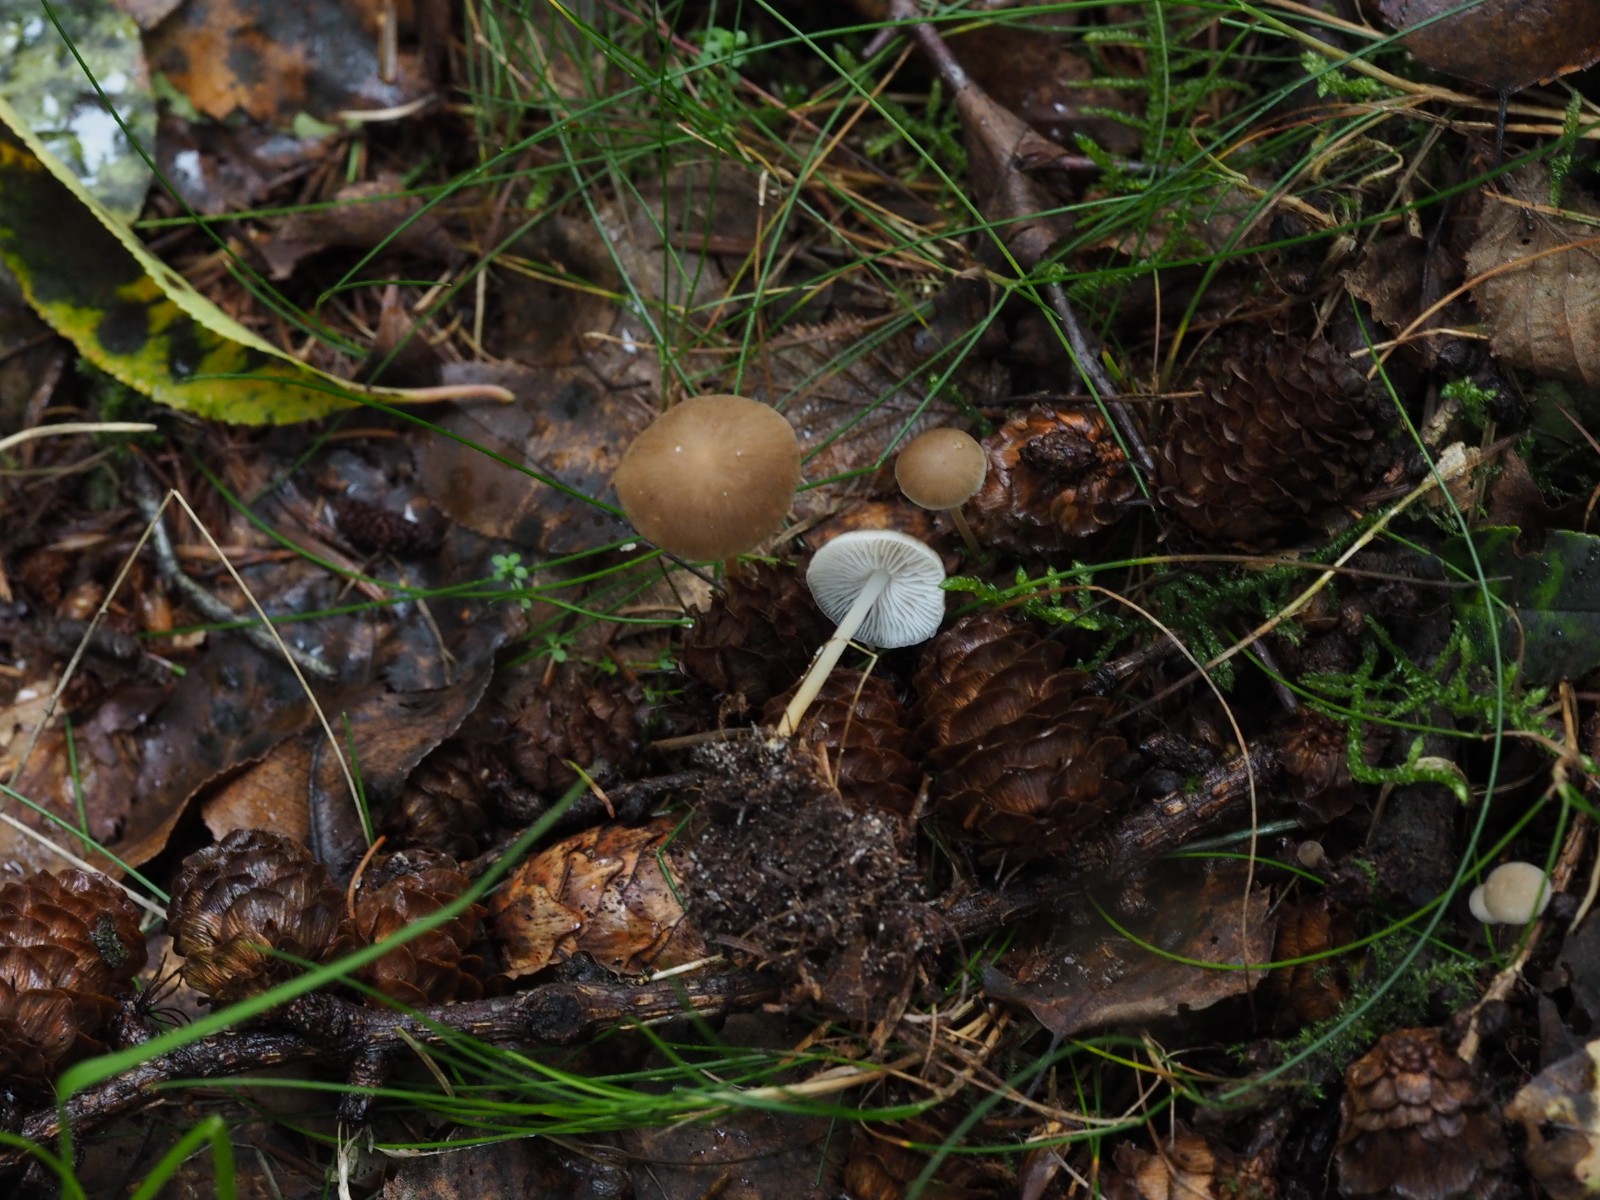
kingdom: Fungi
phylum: Basidiomycota
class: Agaricomycetes
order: Agaricales
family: Physalacriaceae
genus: Strobilurus
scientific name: Strobilurus
